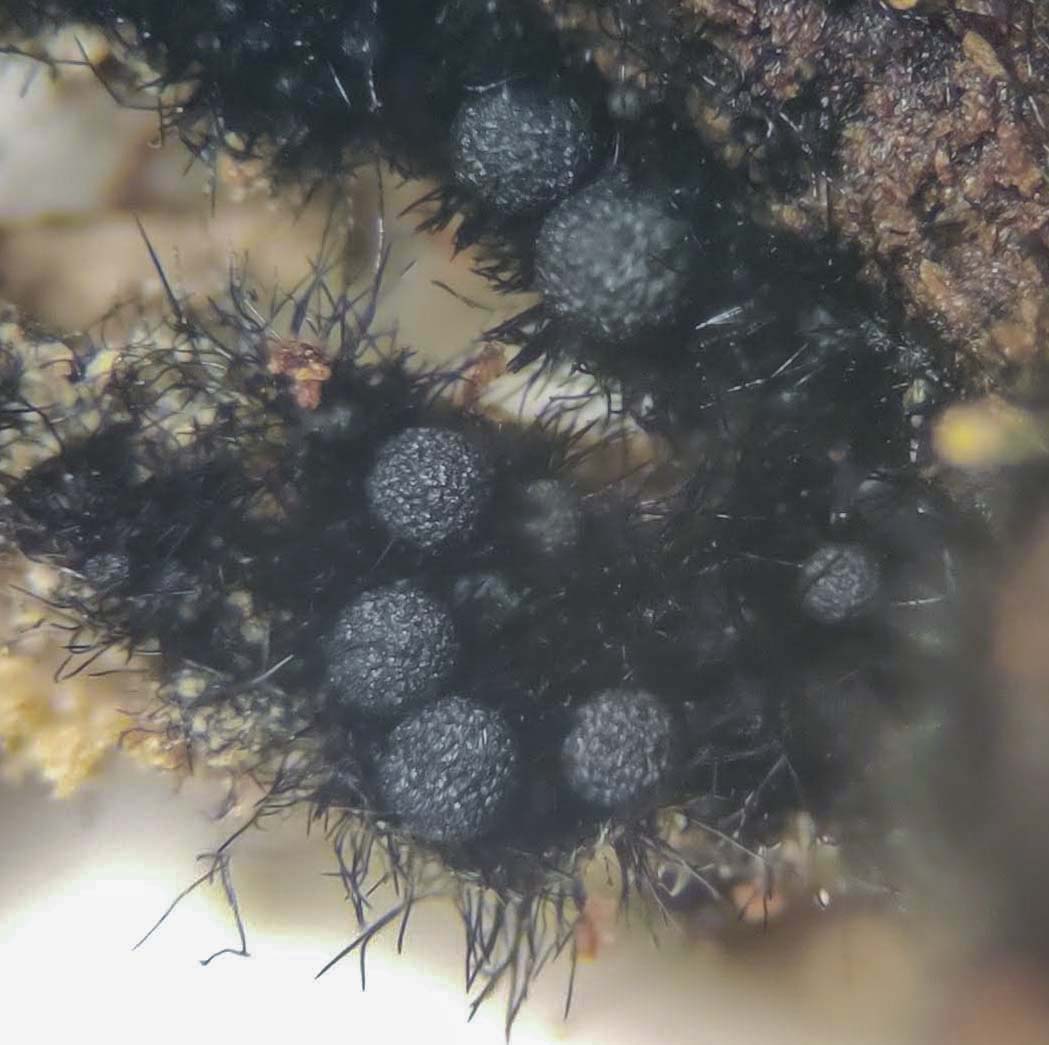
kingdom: Fungi
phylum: Ascomycota
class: Sordariomycetes
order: Coronophorales
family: Chaetosphaerellaceae
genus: Chaetosphaerella
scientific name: Chaetosphaerella phaeostroma
